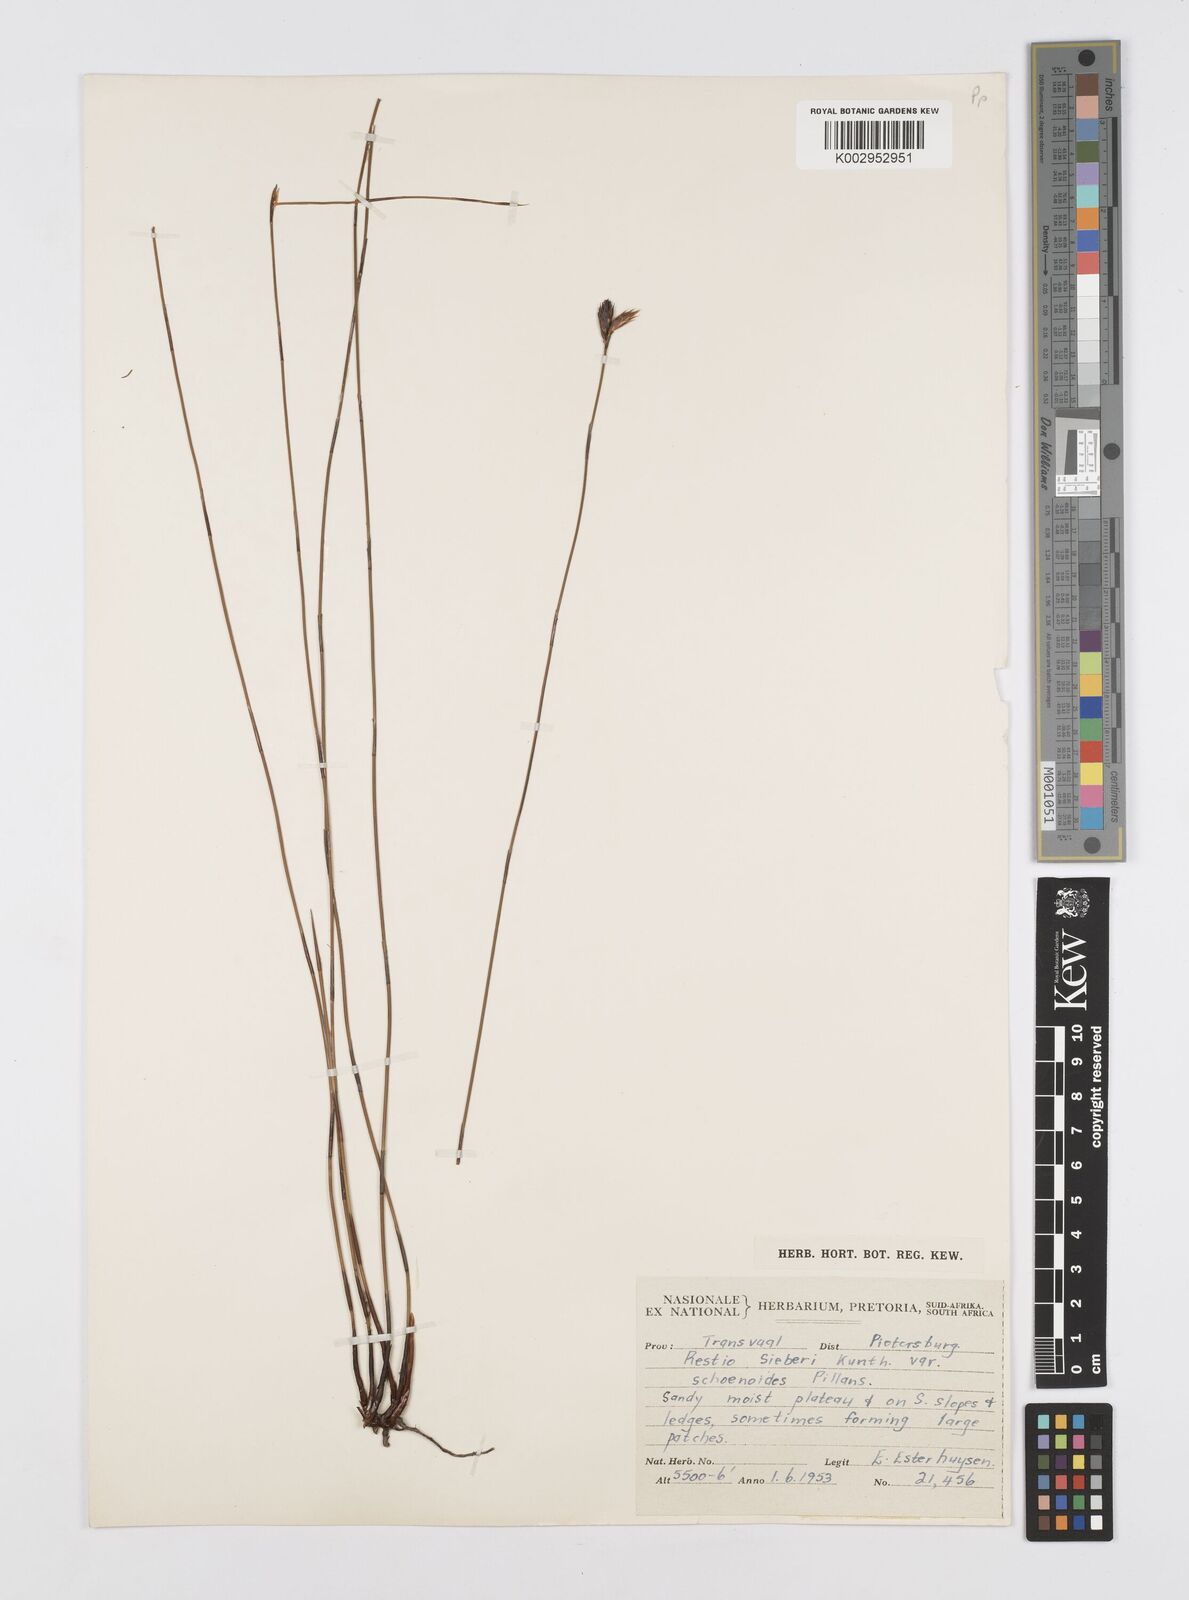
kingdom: Plantae
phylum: Tracheophyta
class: Liliopsida
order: Poales
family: Restionaceae
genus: Restio
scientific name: Restio schoenoides
